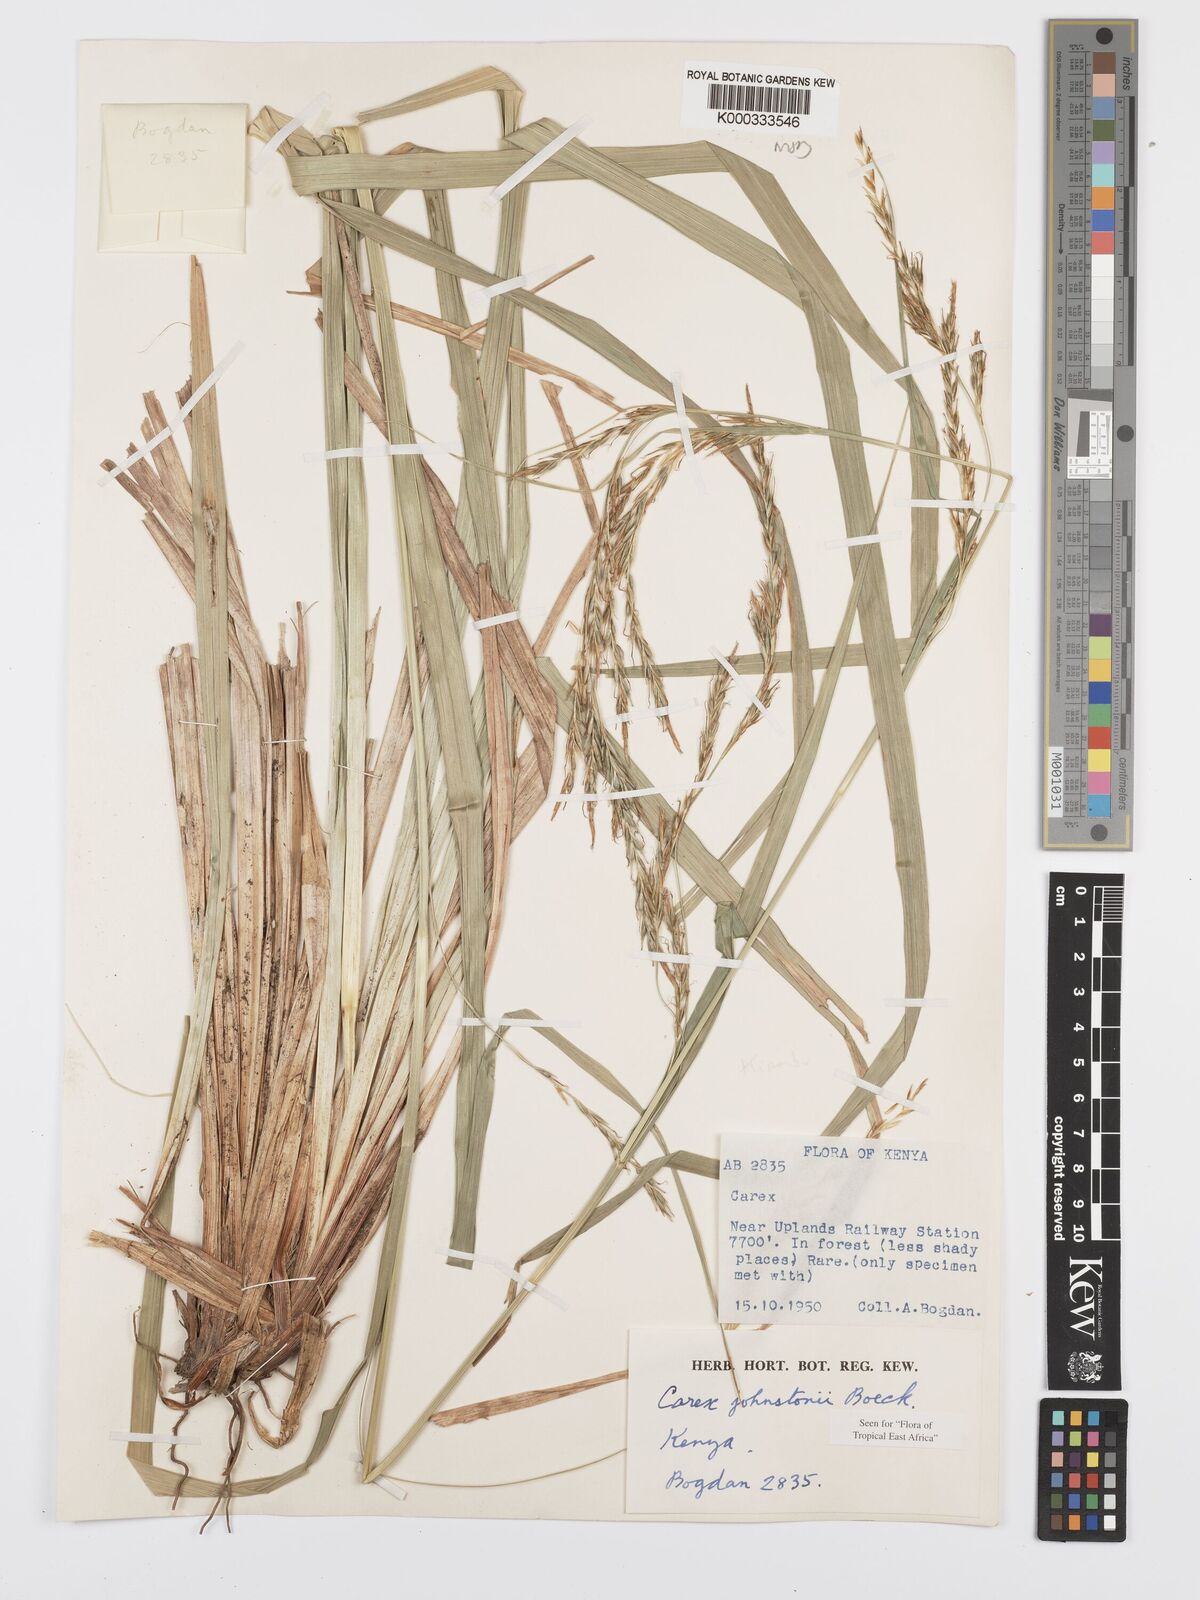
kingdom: Plantae
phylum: Tracheophyta
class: Liliopsida
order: Poales
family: Cyperaceae
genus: Carex
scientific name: Carex johnstonii
